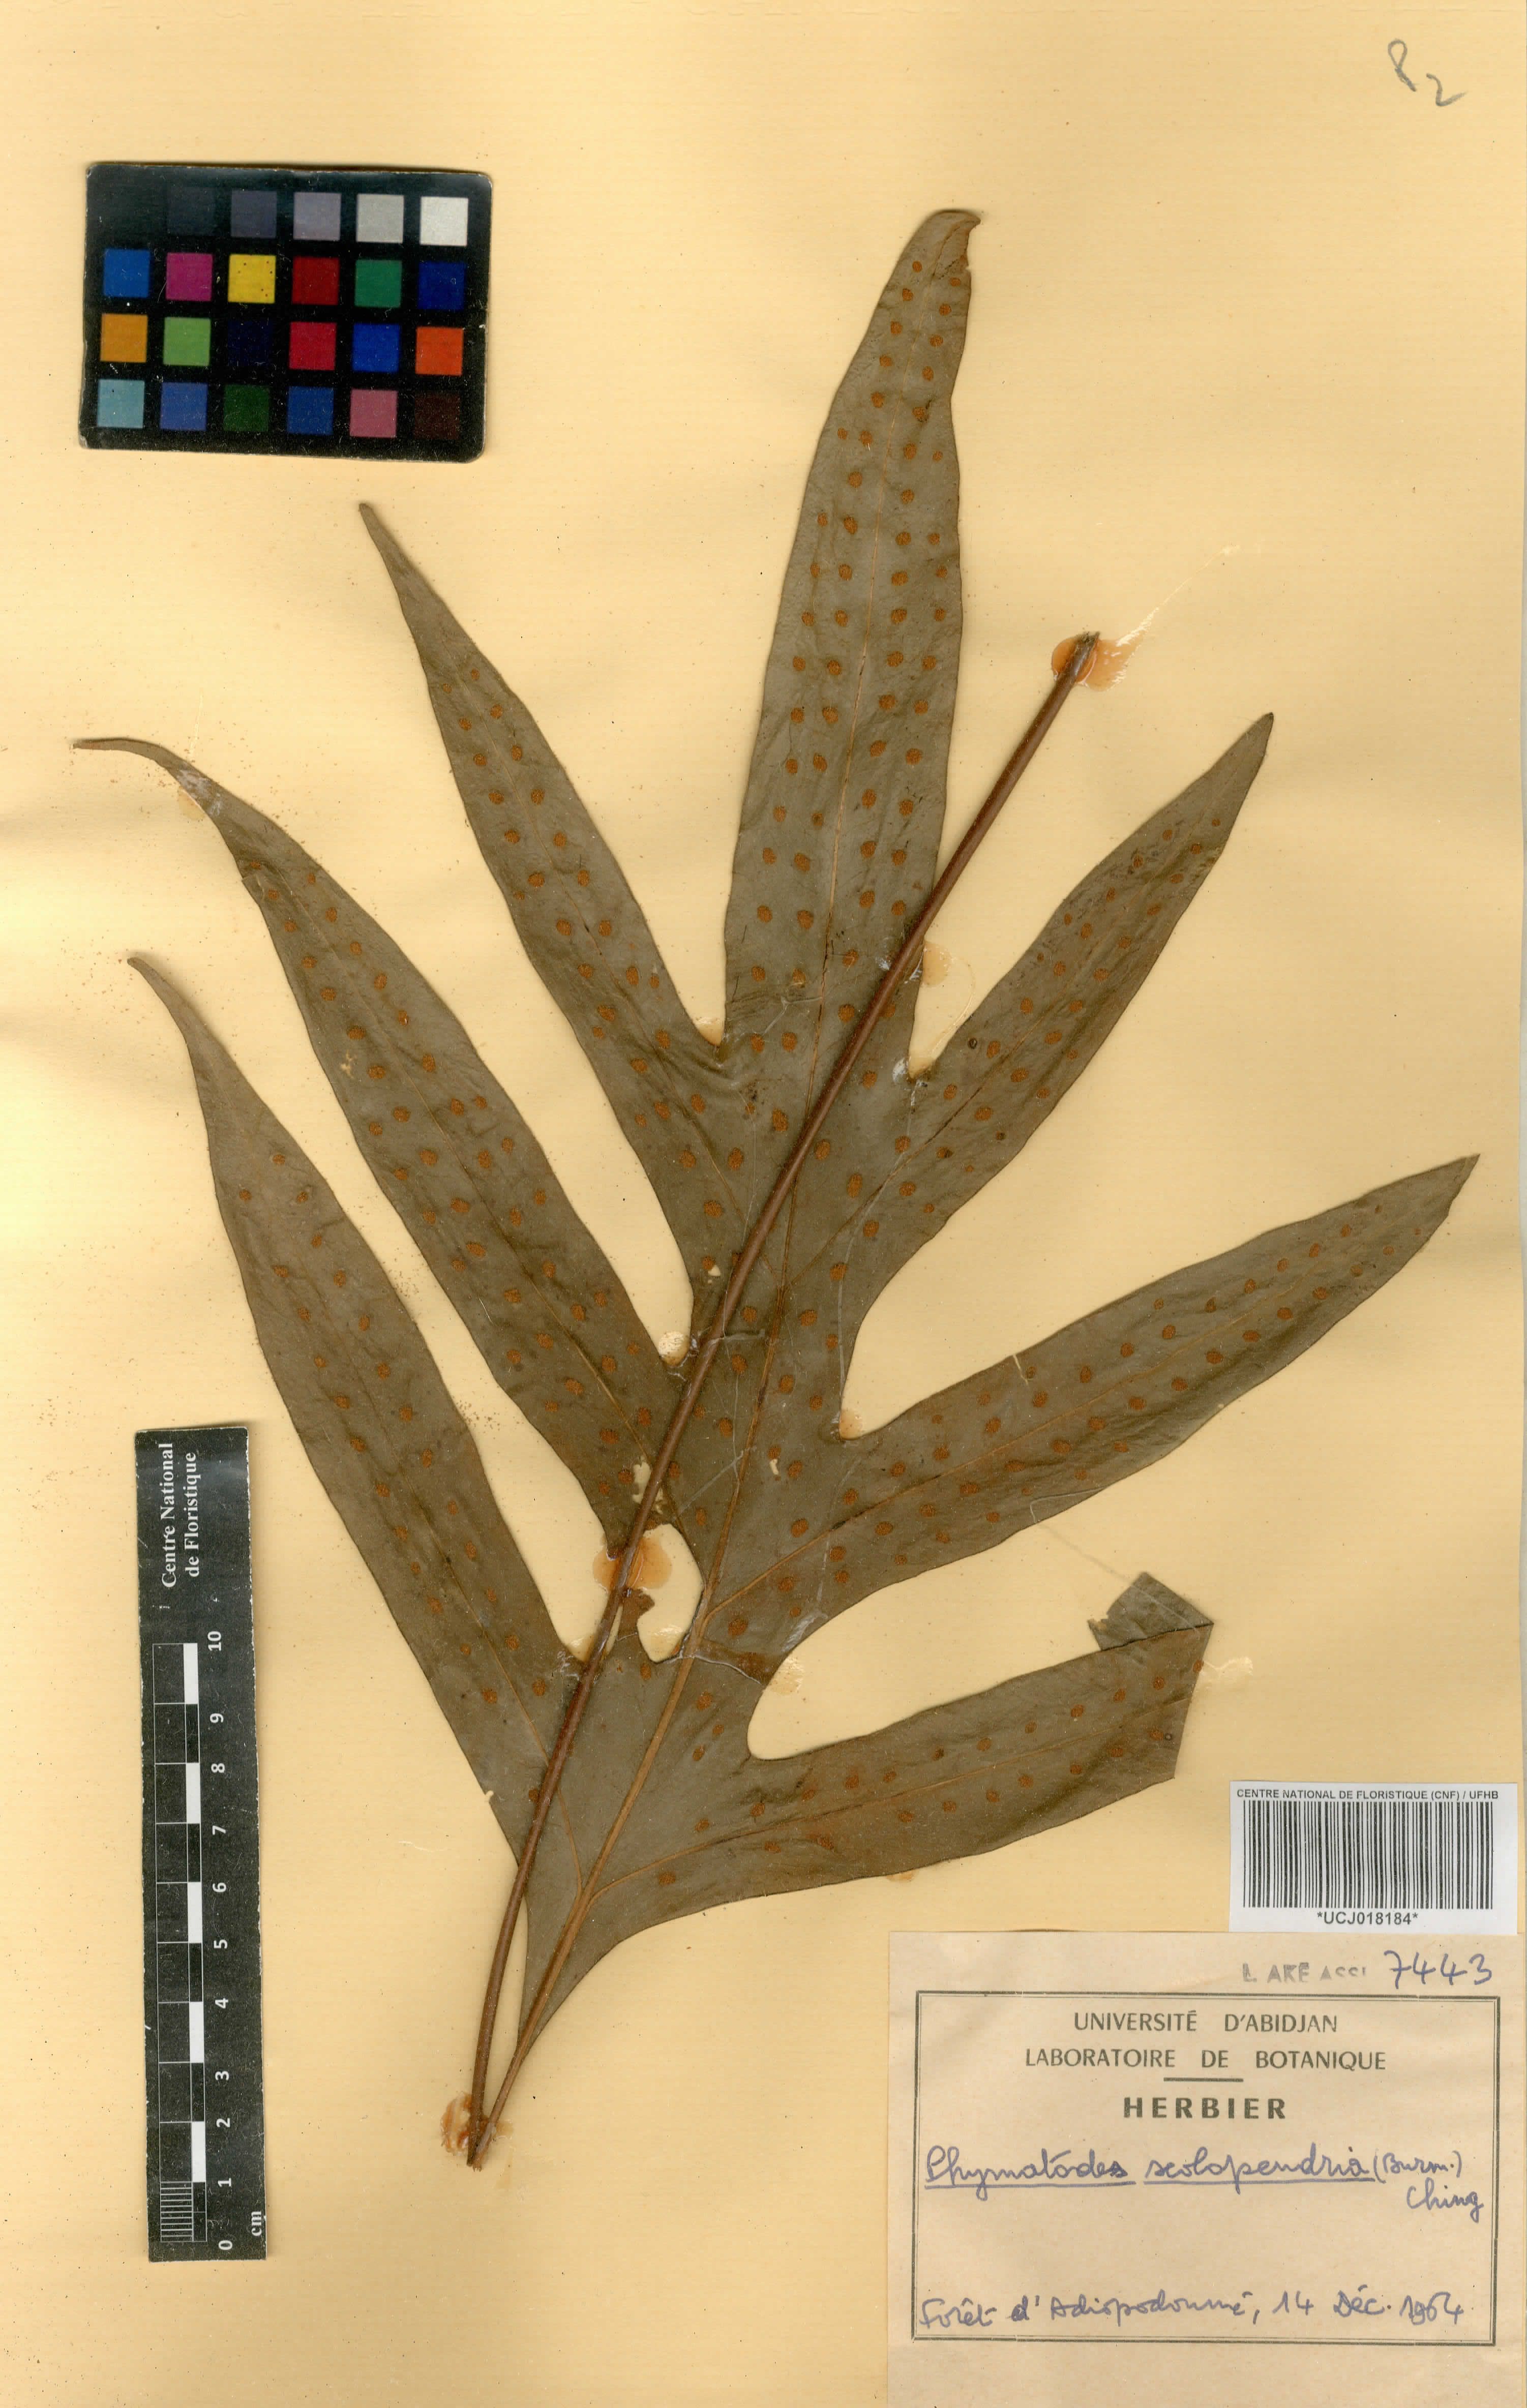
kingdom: Plantae
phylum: Tracheophyta
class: Polypodiopsida
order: Polypodiales
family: Polypodiaceae
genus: Microsorum
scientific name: Microsorum scolopendria
